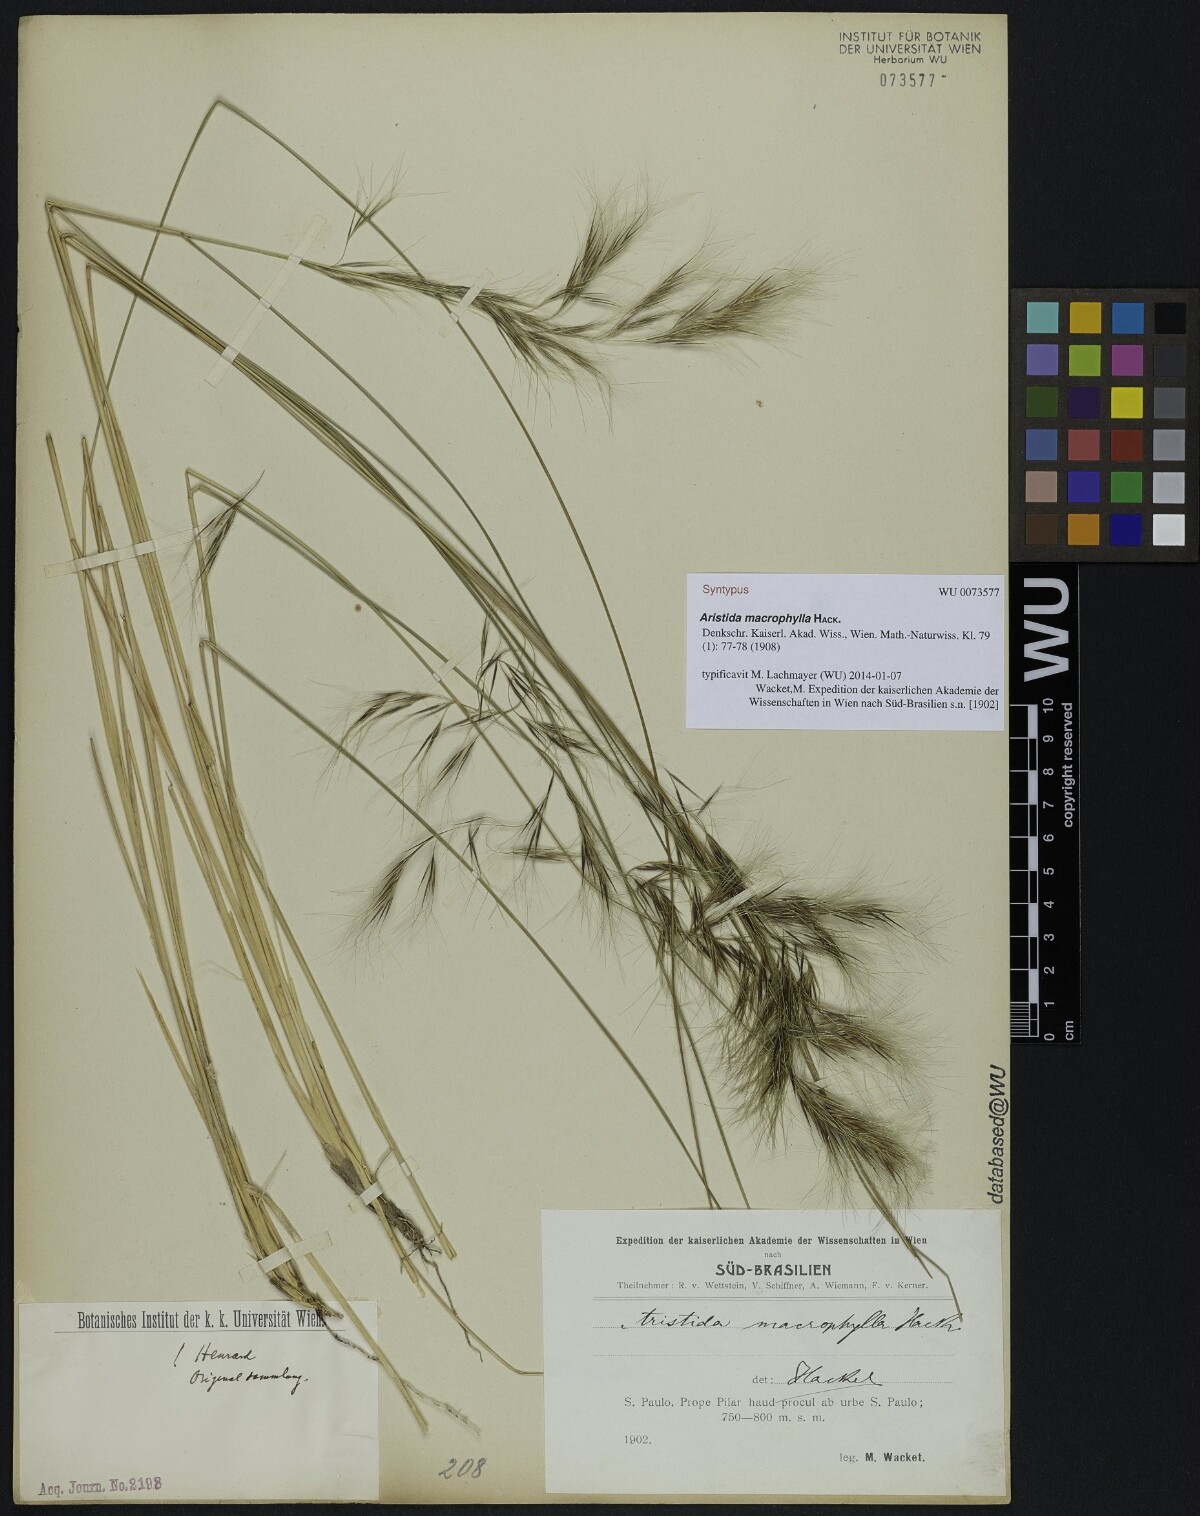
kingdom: Plantae
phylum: Tracheophyta
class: Liliopsida
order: Poales
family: Poaceae
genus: Aristida
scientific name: Aristida macrophylla
